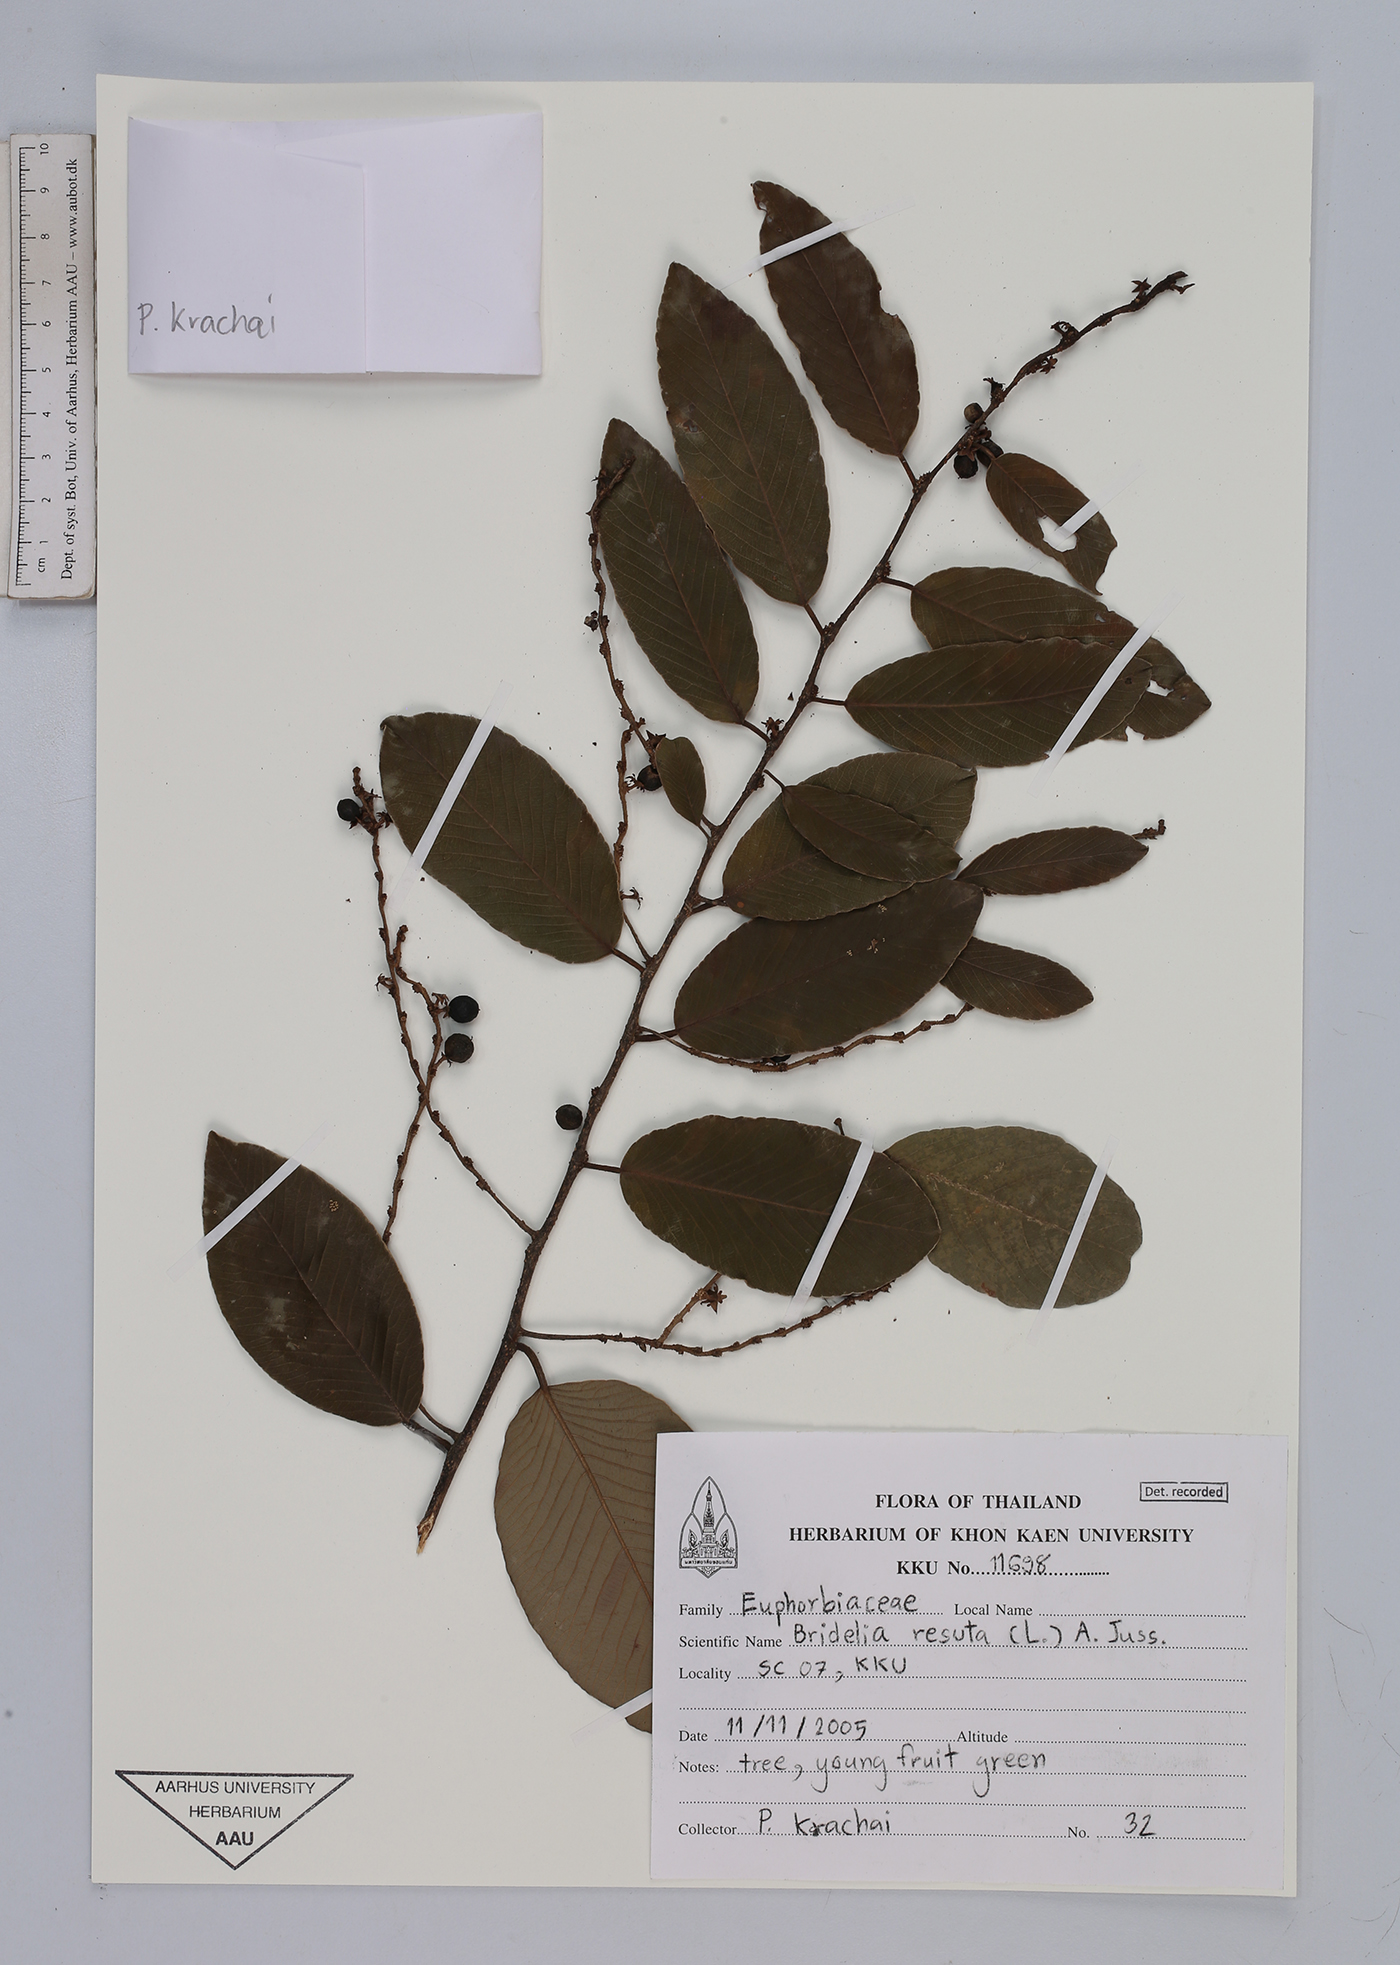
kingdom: Plantae
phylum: Tracheophyta
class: Magnoliopsida
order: Malpighiales
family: Phyllanthaceae
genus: Bridelia
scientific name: Bridelia retusa
